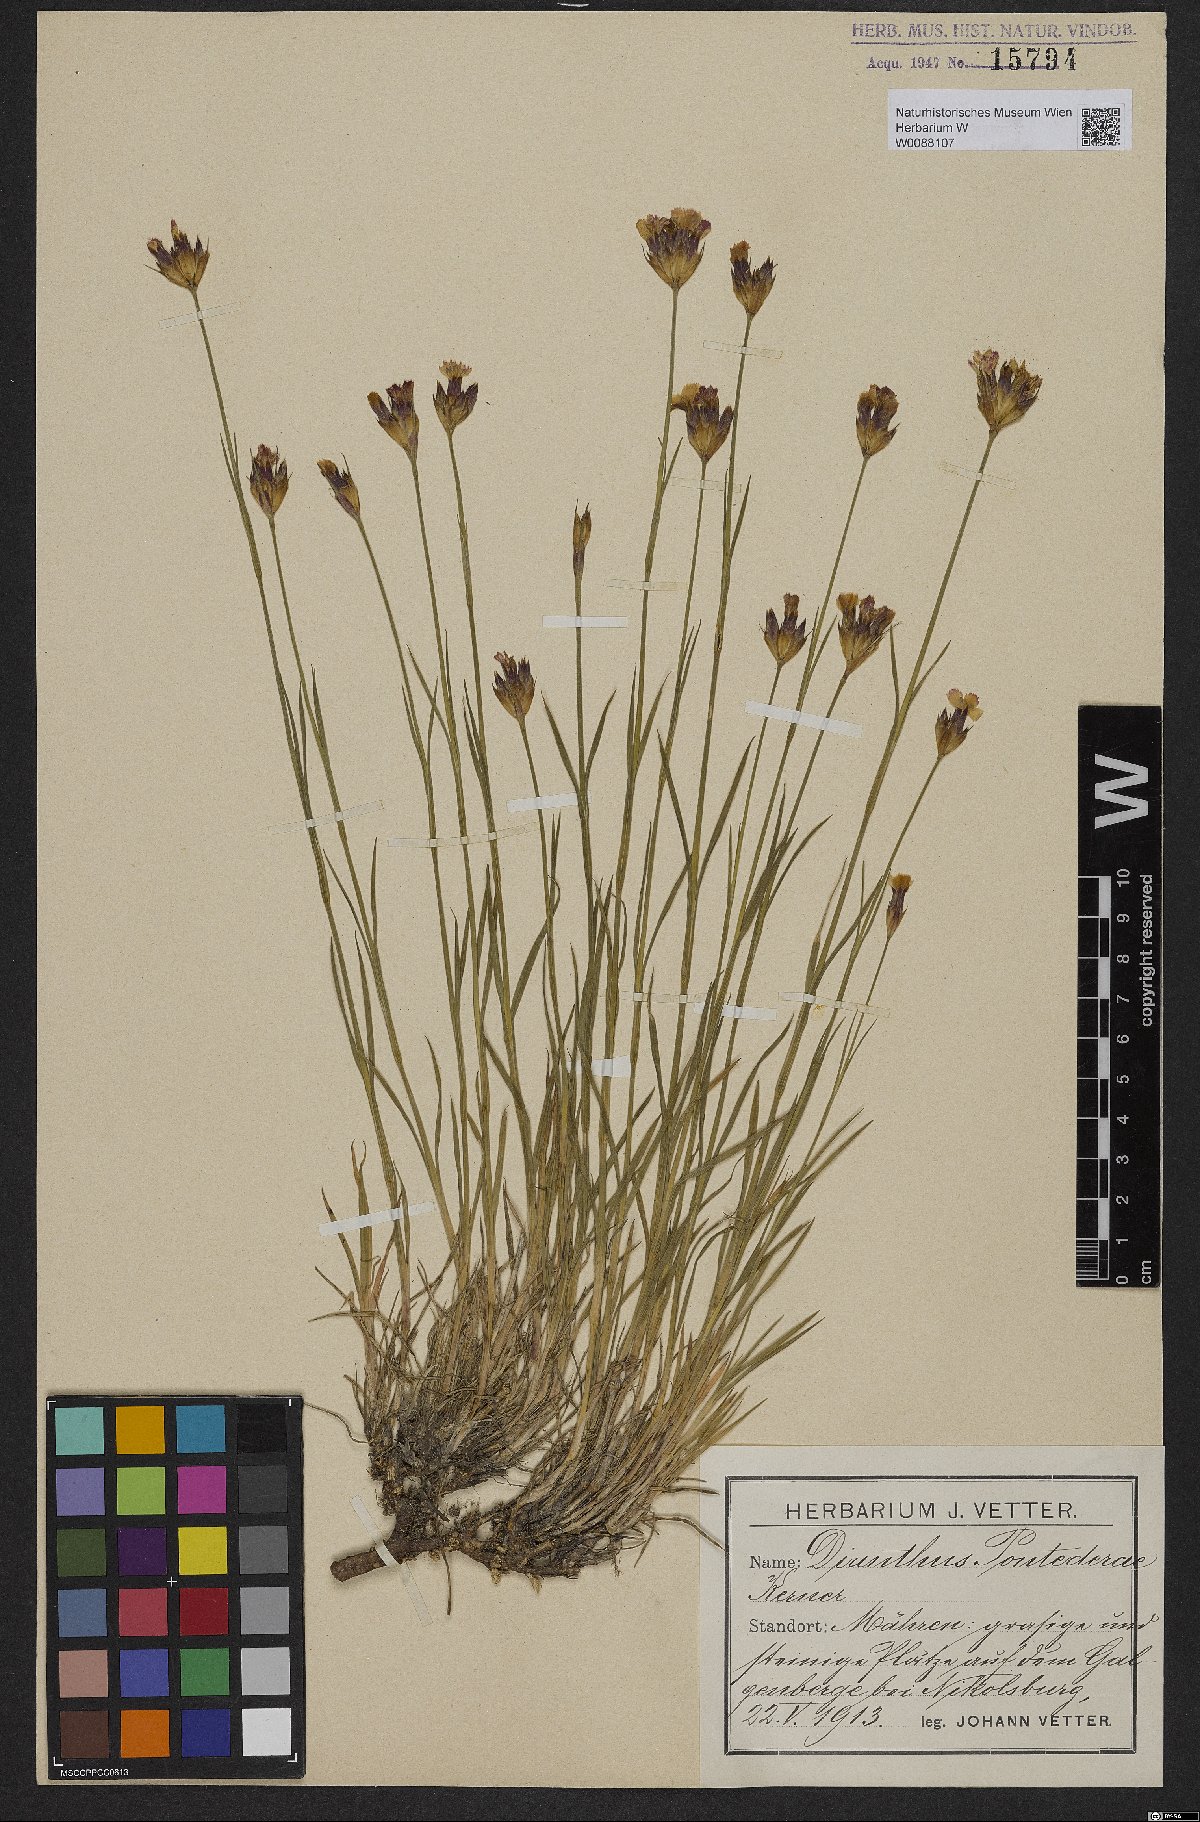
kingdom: Plantae
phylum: Tracheophyta
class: Magnoliopsida
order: Caryophyllales
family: Caryophyllaceae
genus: Dianthus
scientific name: Dianthus pontederae
